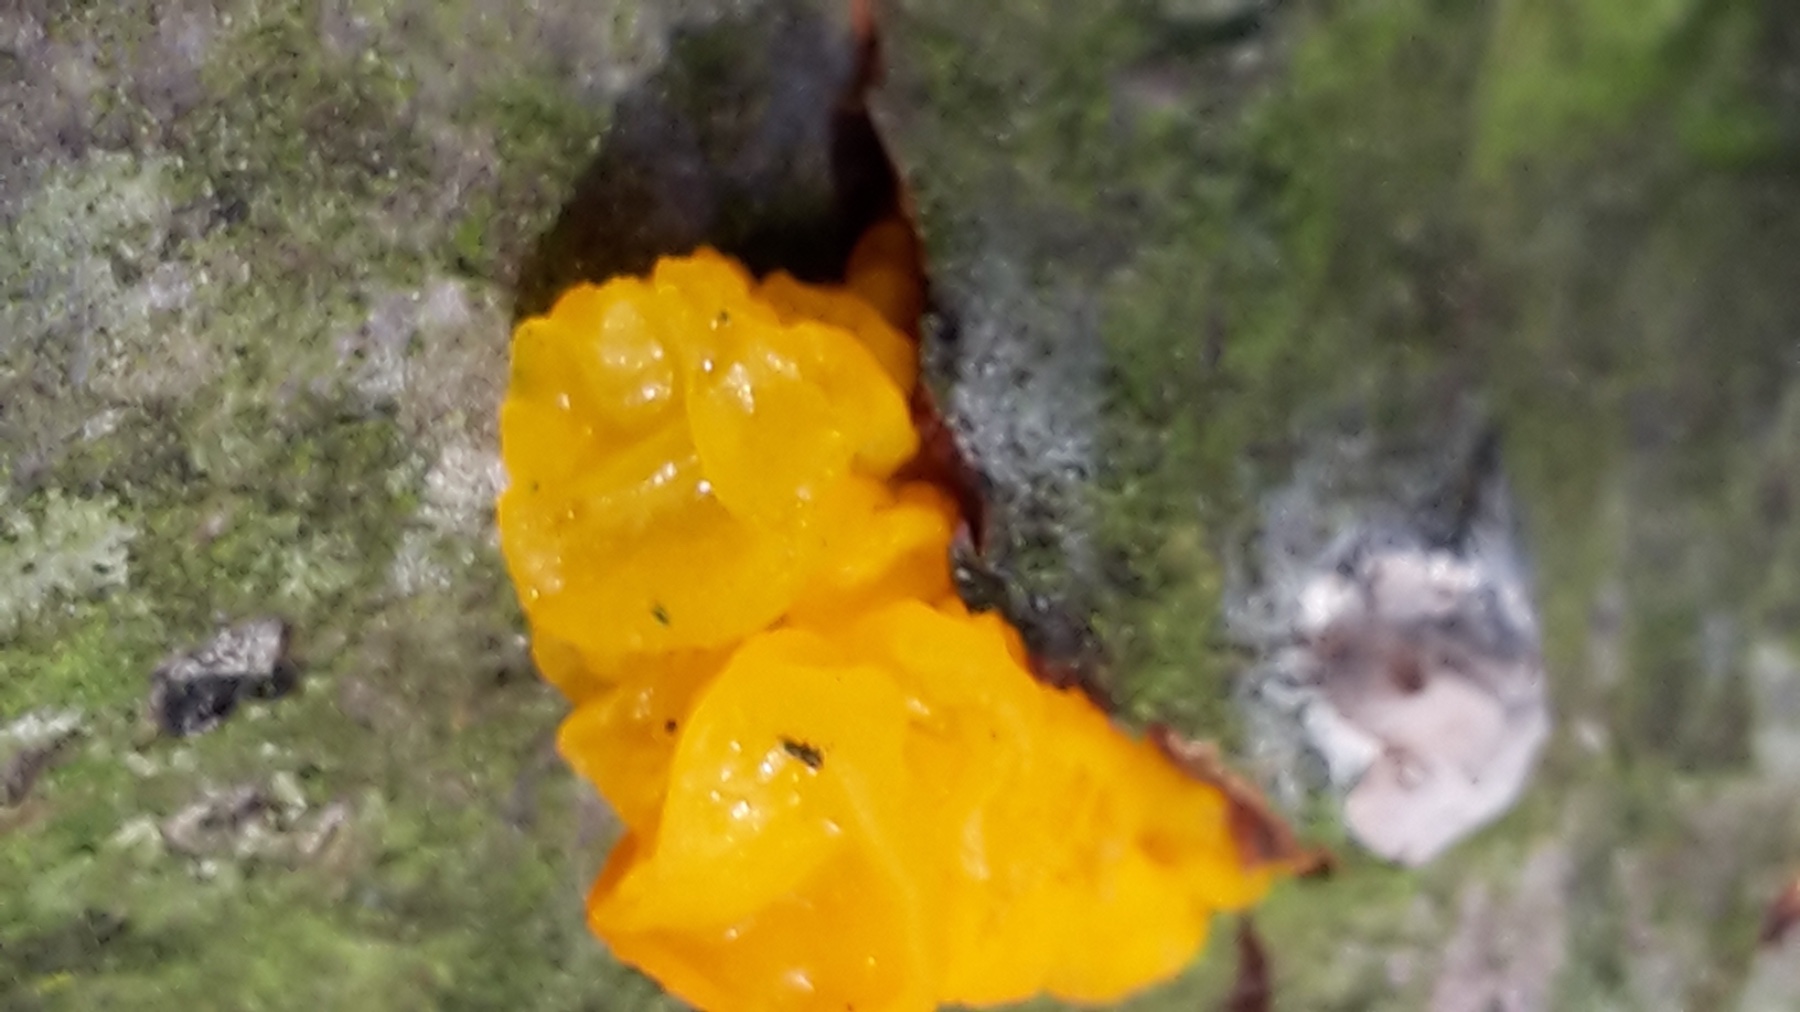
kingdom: Fungi
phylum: Basidiomycota
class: Tremellomycetes
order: Tremellales
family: Tremellaceae
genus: Tremella
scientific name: Tremella mesenterica
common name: gul bævresvamp
